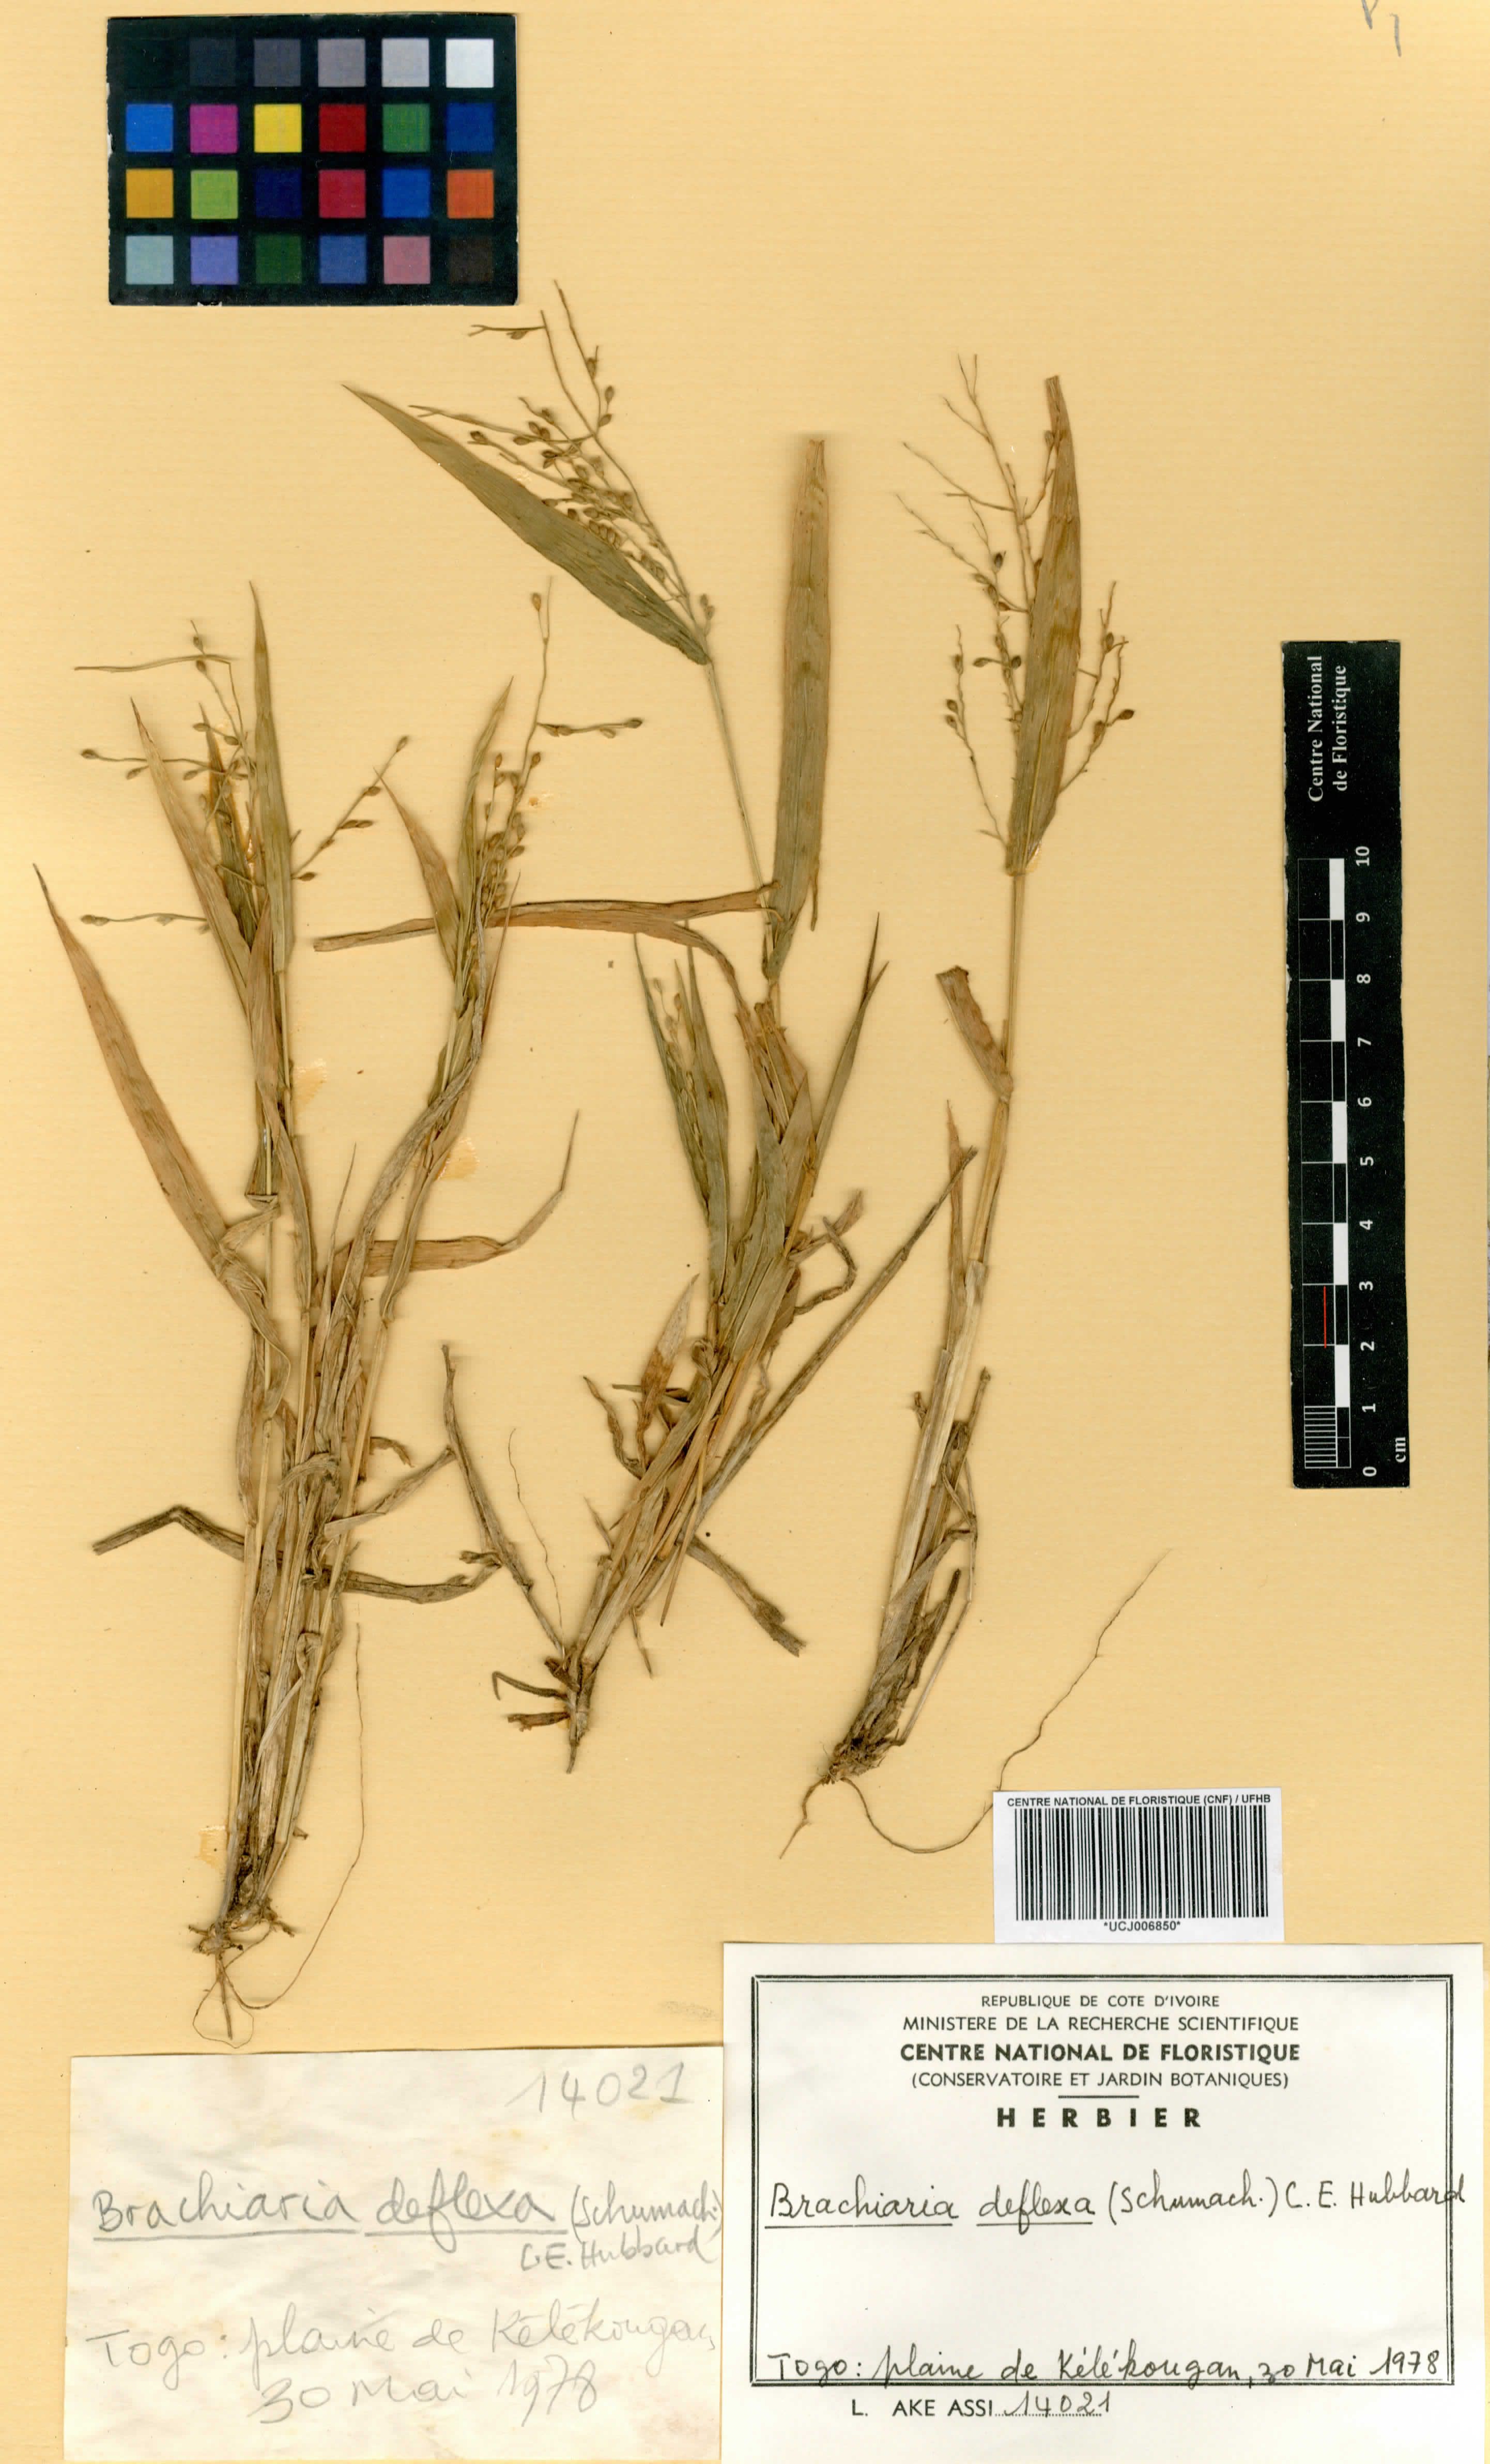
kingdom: Plantae
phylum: Tracheophyta
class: Liliopsida
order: Poales
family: Poaceae
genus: Urochloa
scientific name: Urochloa deflexa
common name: Guinea millet
